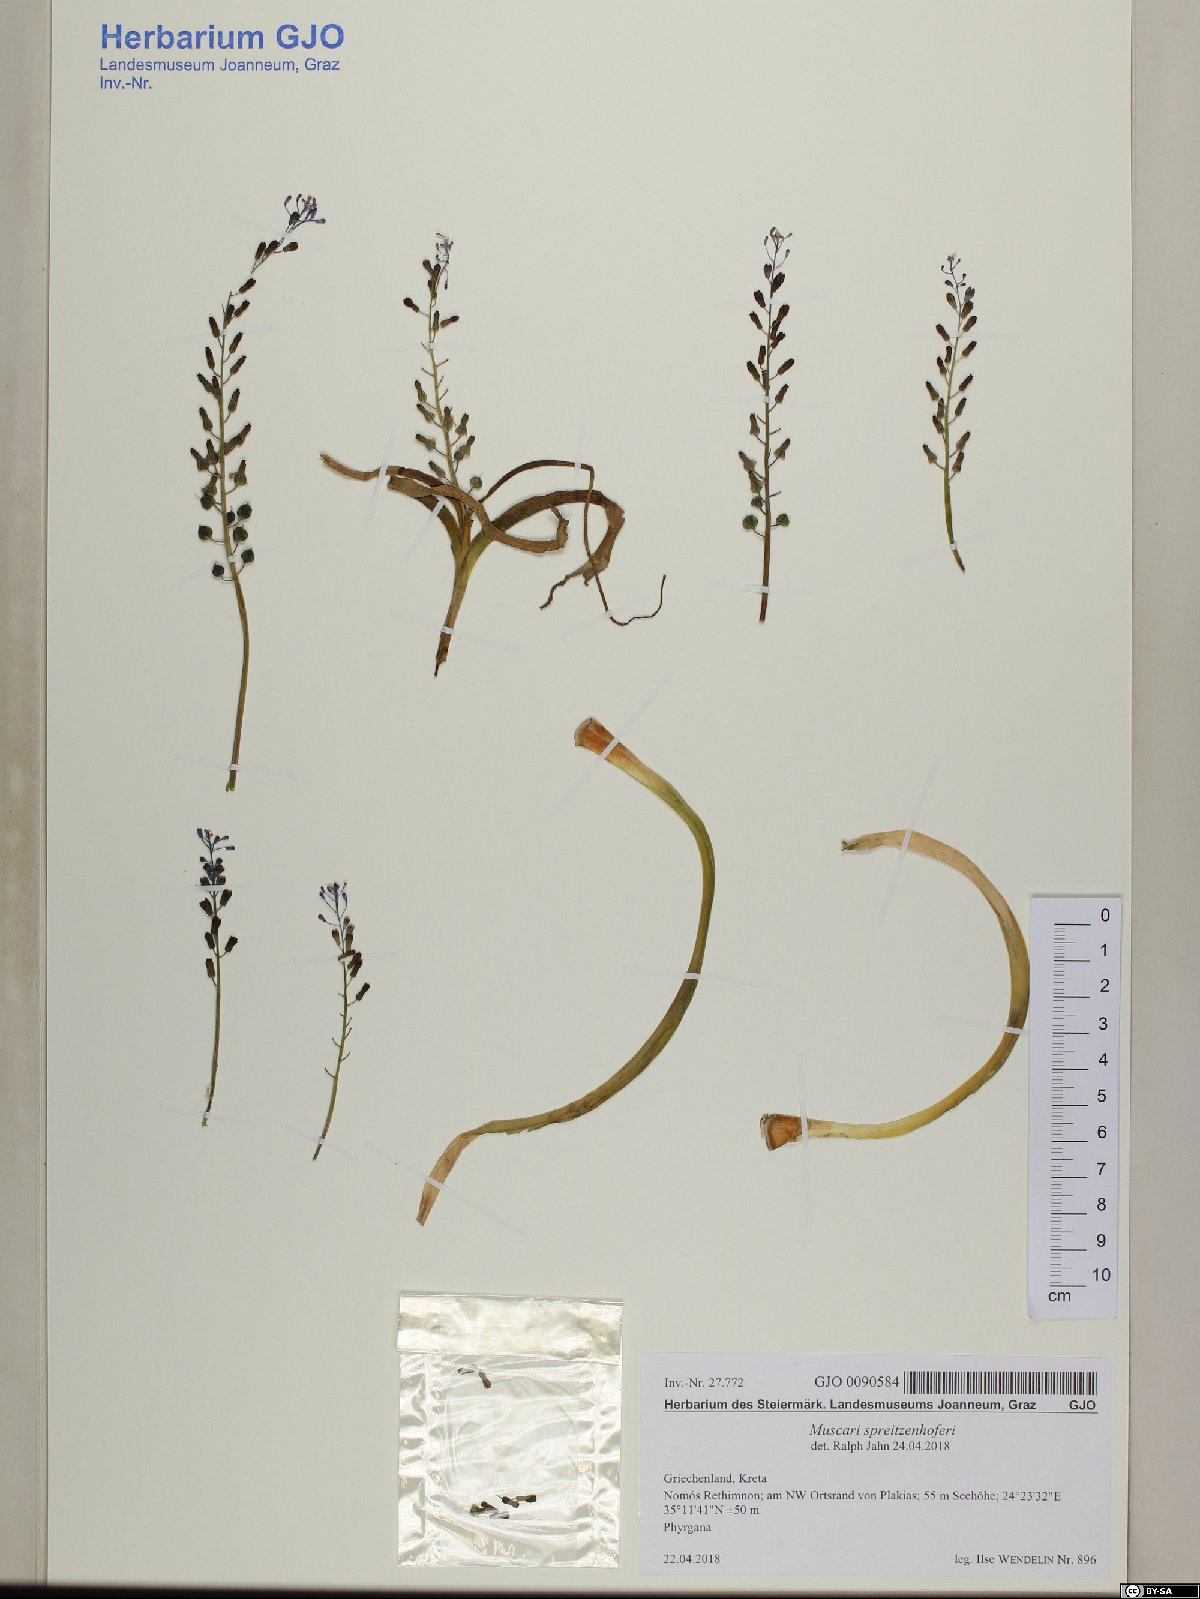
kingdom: Plantae
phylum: Tracheophyta
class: Liliopsida
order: Asparagales
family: Asparagaceae
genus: Muscari
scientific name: Muscari spreitzenhoferi
